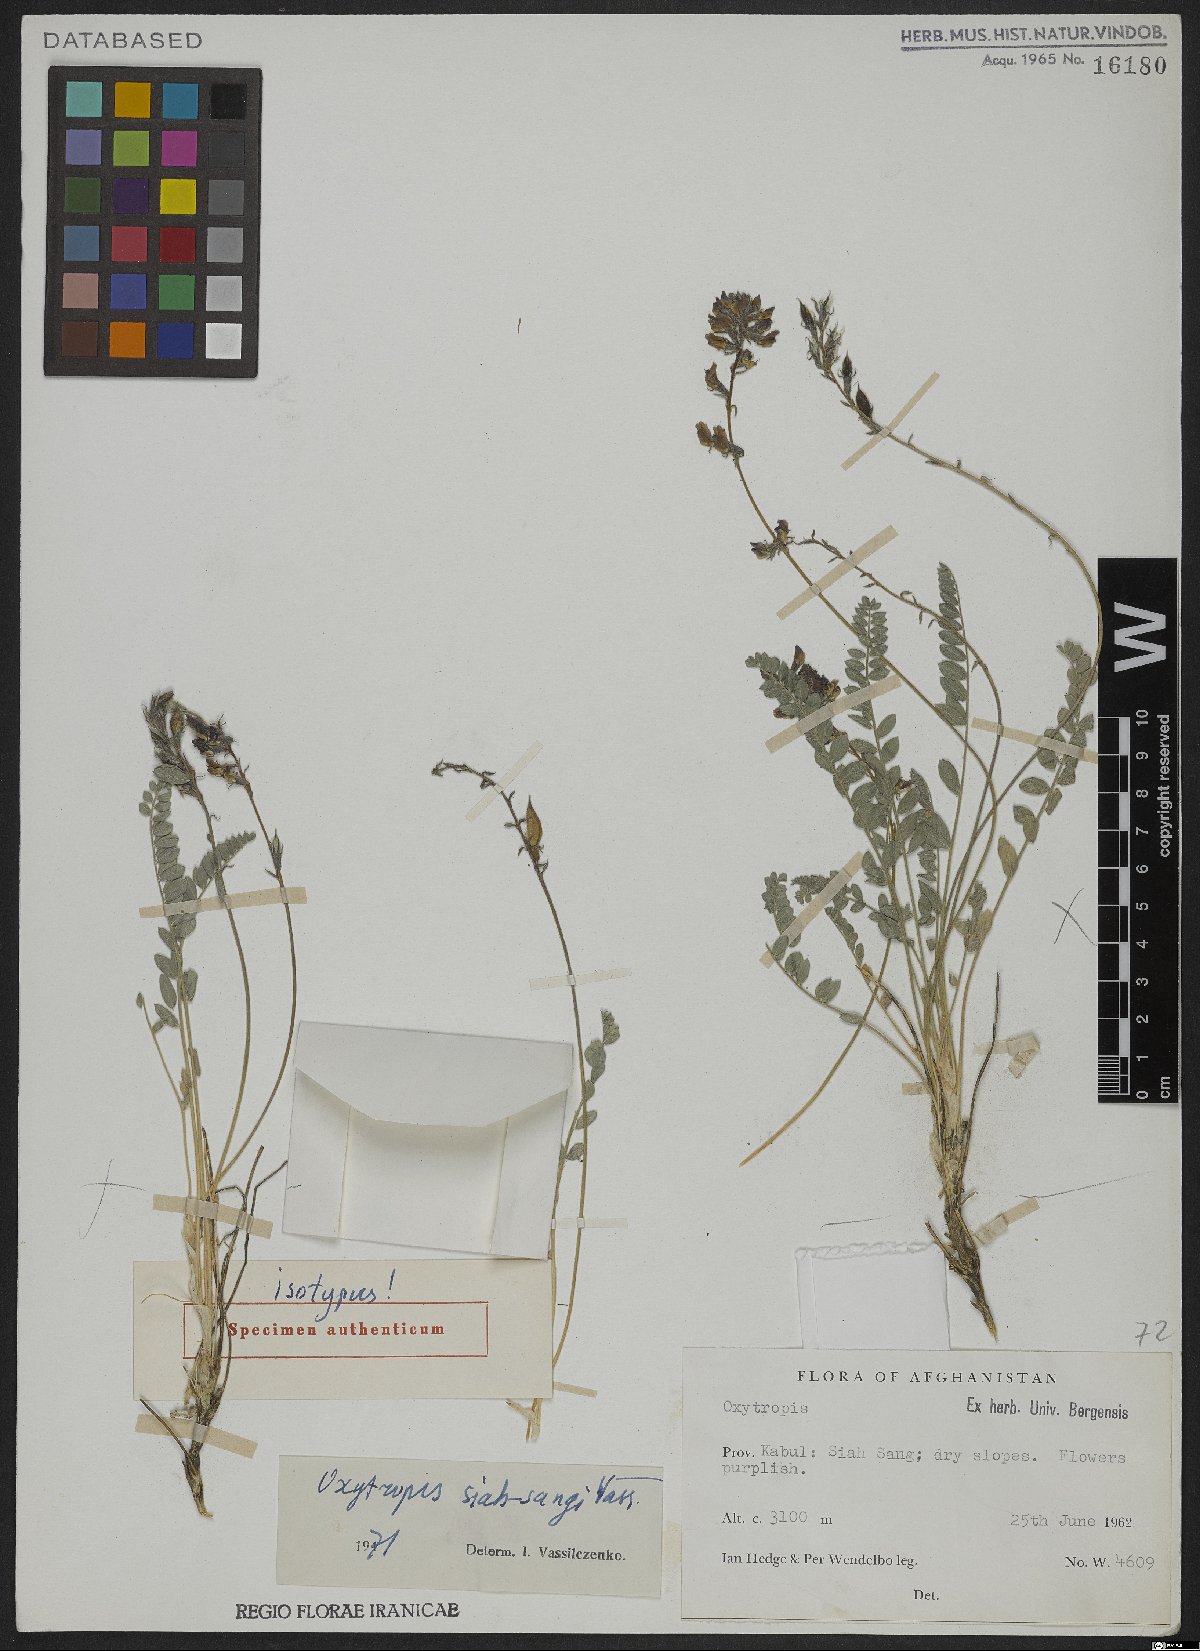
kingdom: Plantae
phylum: Tracheophyta
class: Magnoliopsida
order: Fabales
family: Fabaceae
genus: Oxytropis
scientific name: Oxytropis siah-sangi
